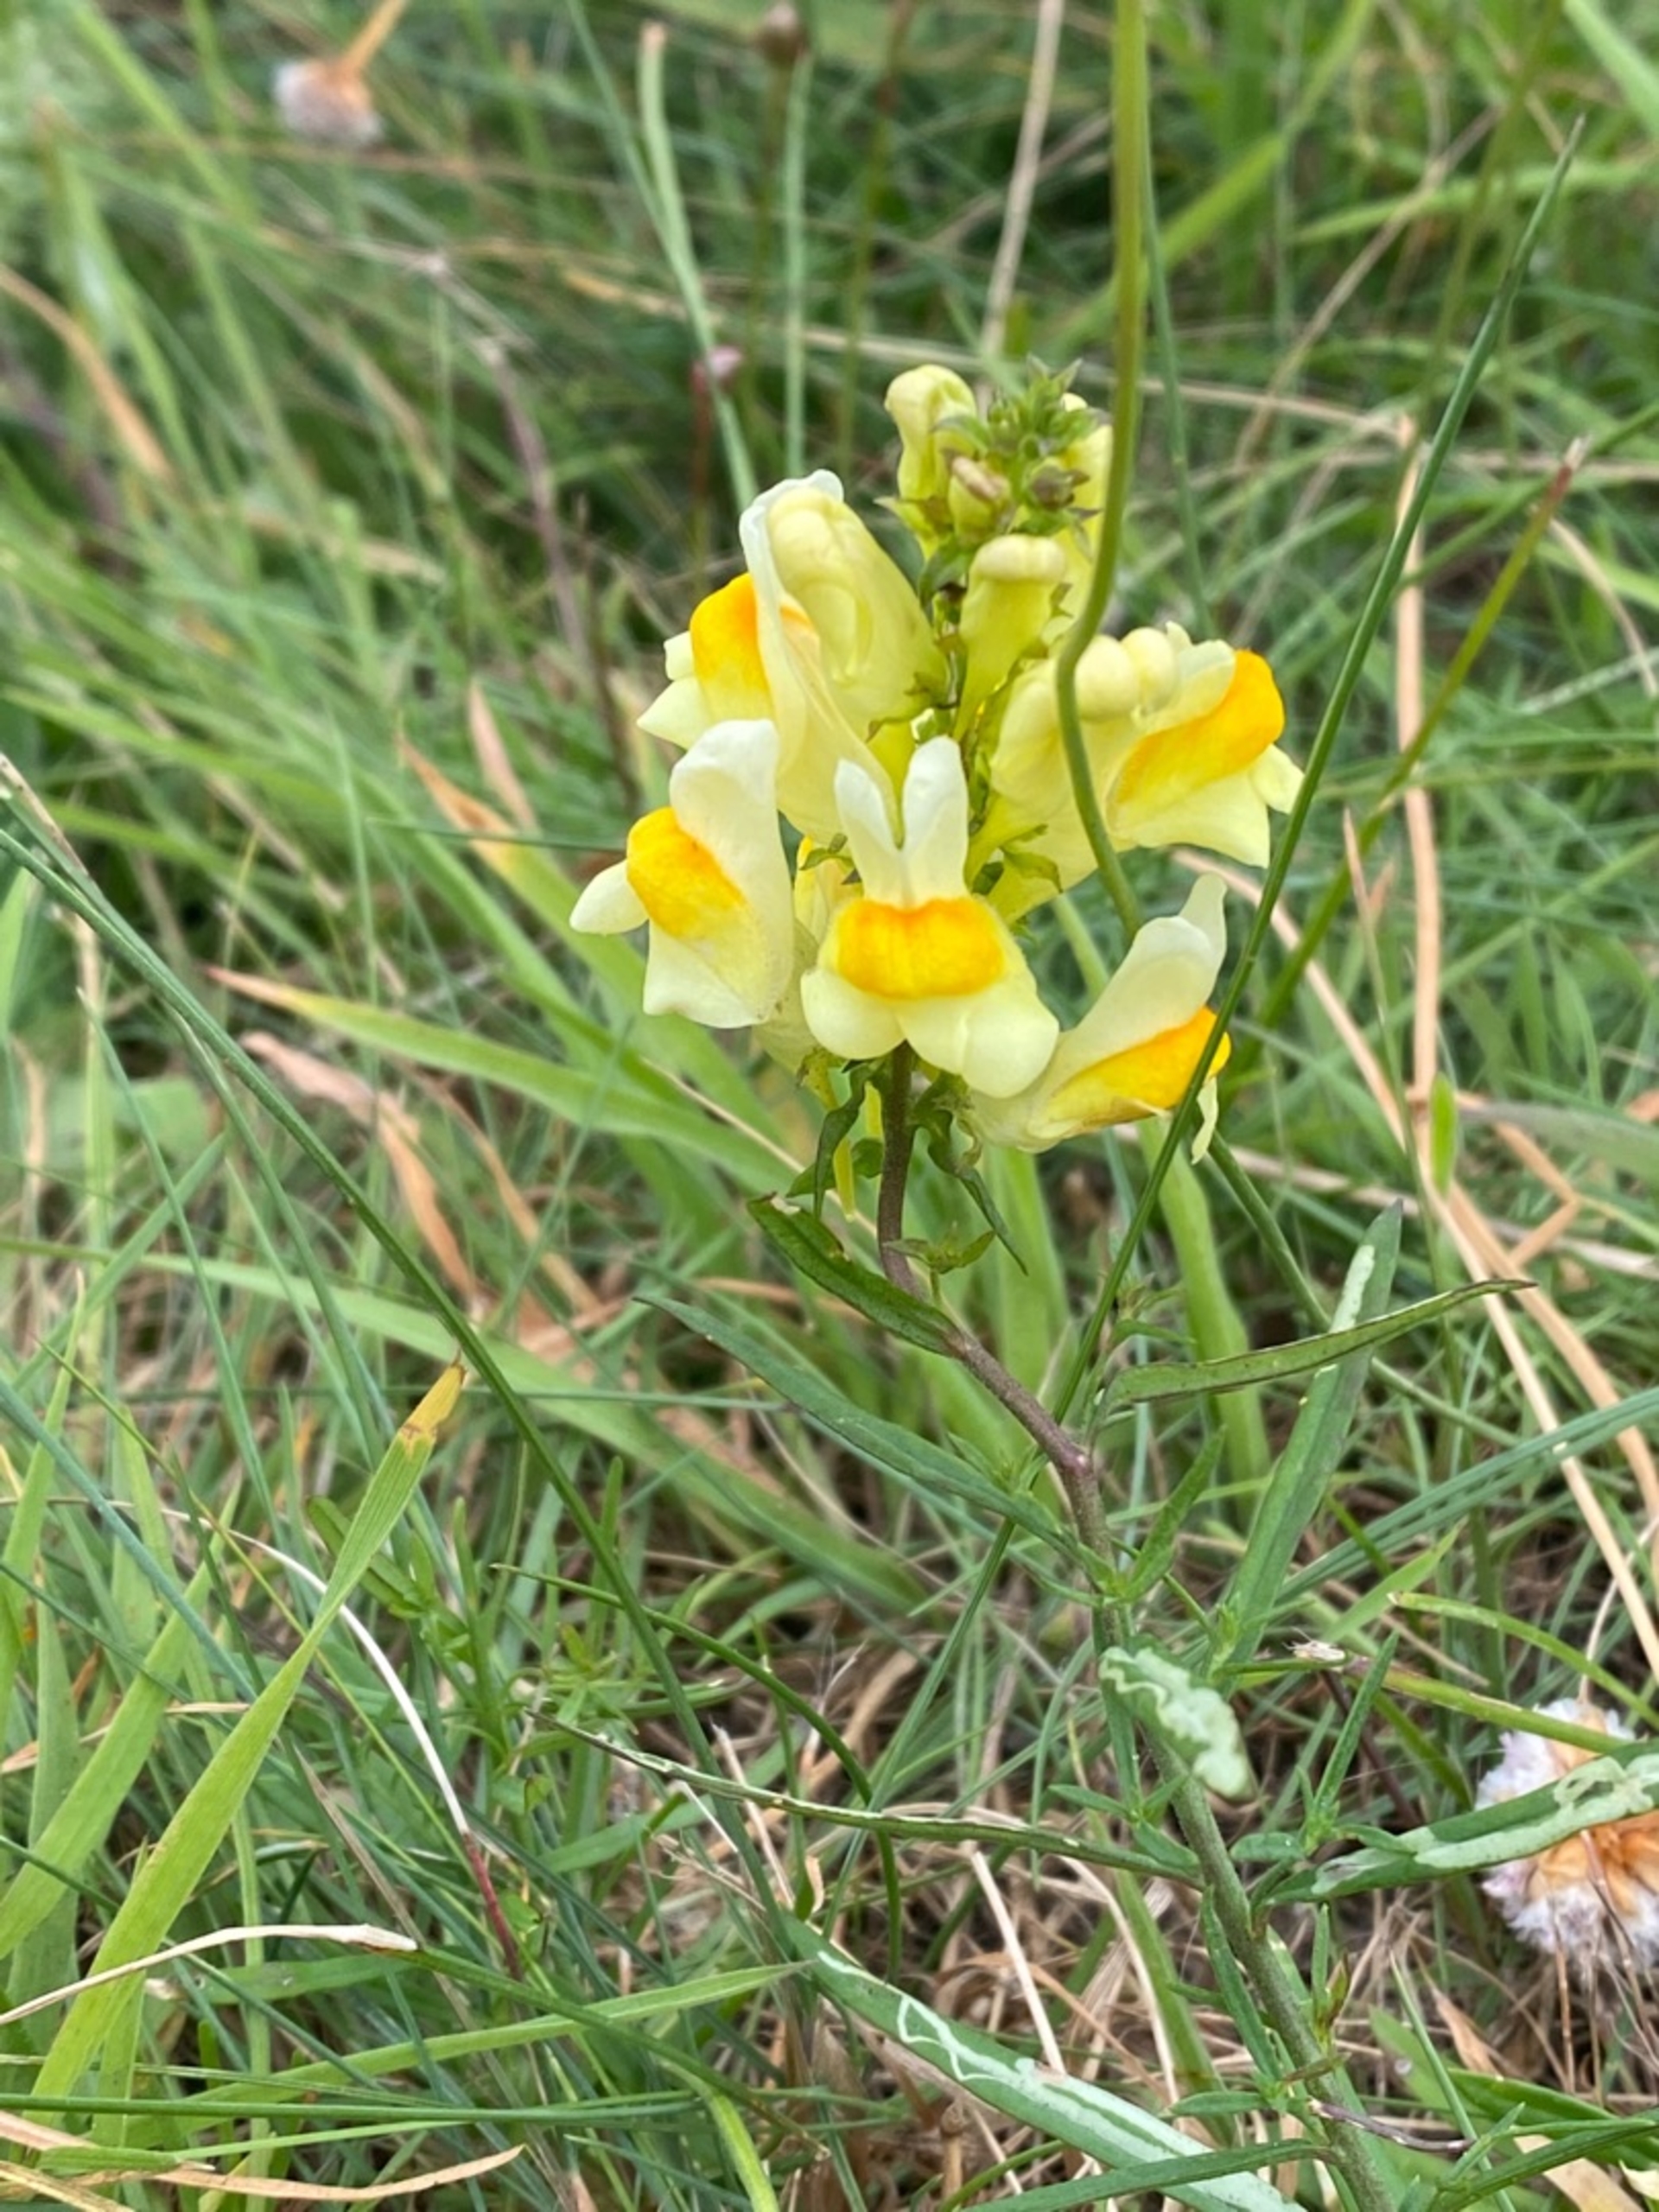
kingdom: Plantae
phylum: Tracheophyta
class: Magnoliopsida
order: Lamiales
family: Plantaginaceae
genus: Linaria
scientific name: Linaria vulgaris
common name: Almindelig torskemund
